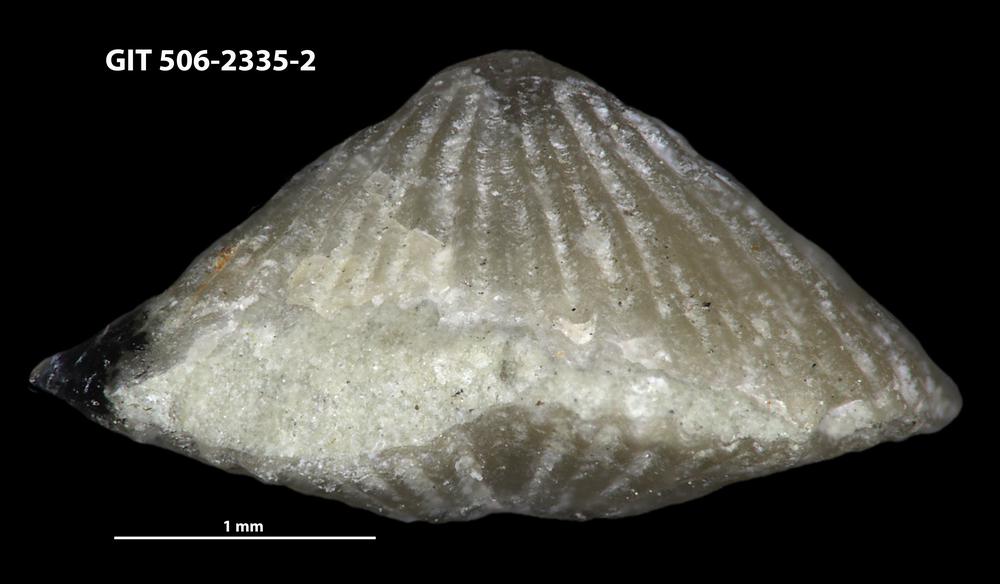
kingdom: Animalia
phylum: Brachiopoda
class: Rhynchonellata
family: Skenidiidae
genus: Skenidioides
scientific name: Skenidioides Orthis acuta
